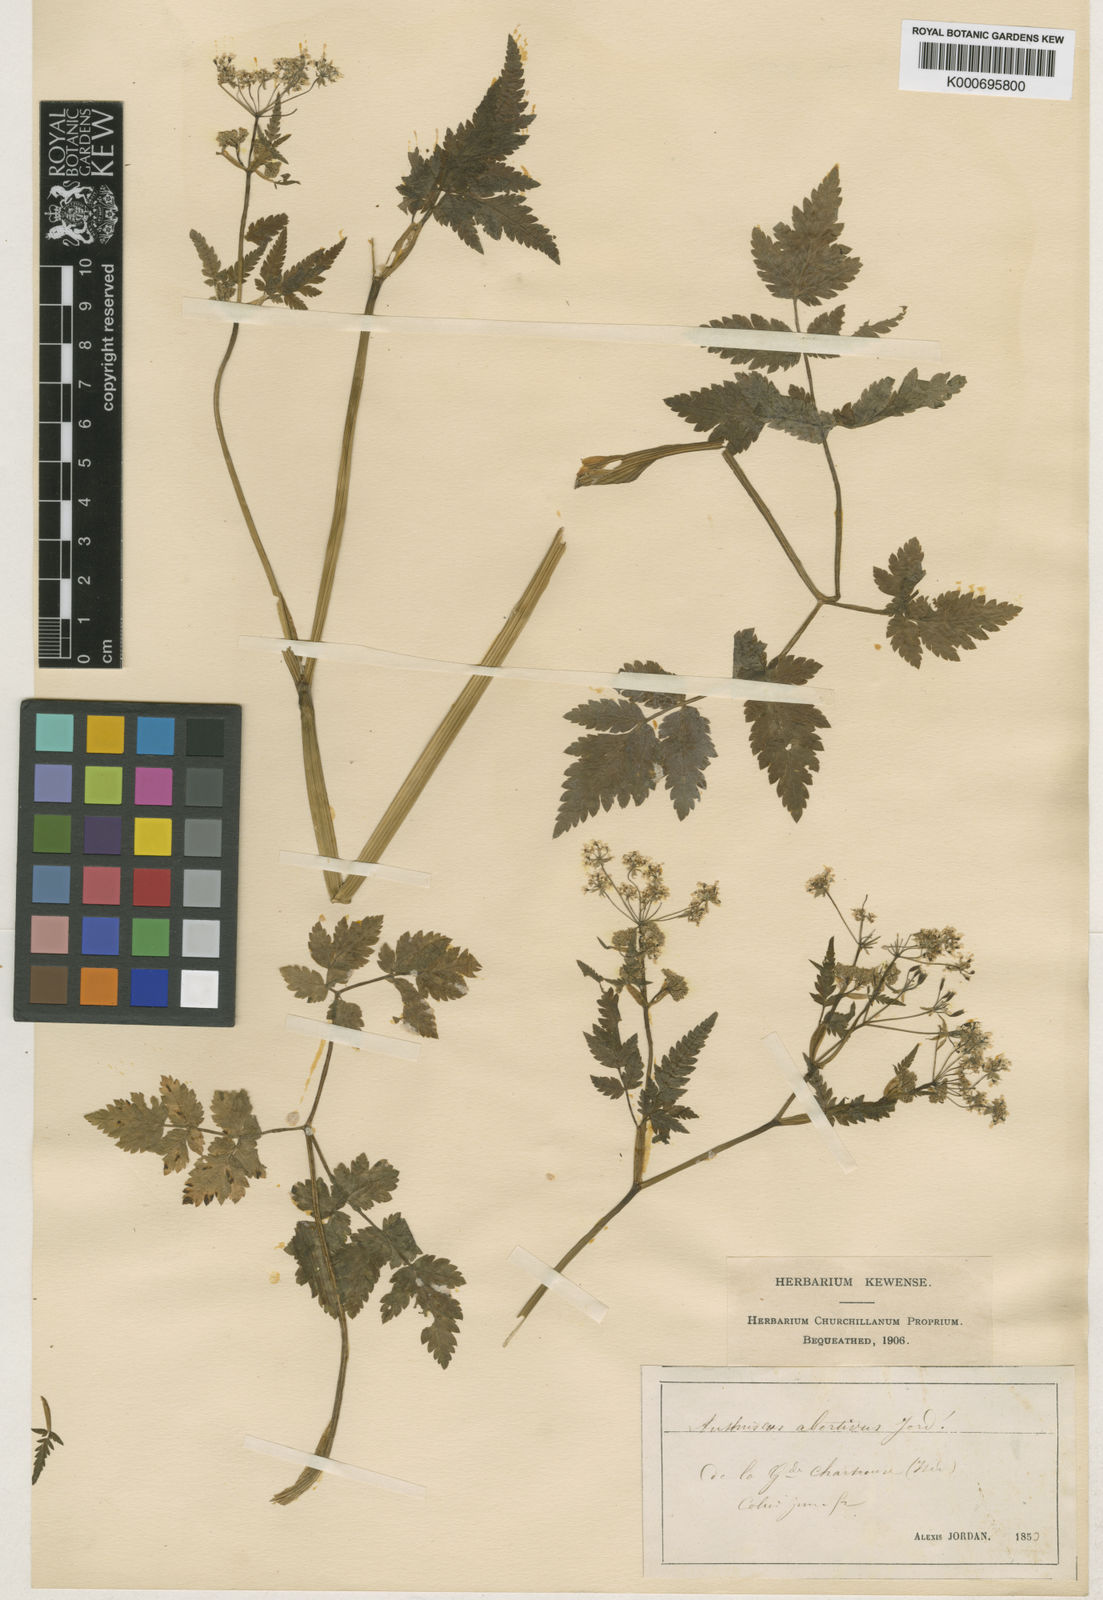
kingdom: Plantae
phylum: Tracheophyta
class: Magnoliopsida
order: Apiales
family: Apiaceae
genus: Anthriscus
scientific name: Anthriscus
